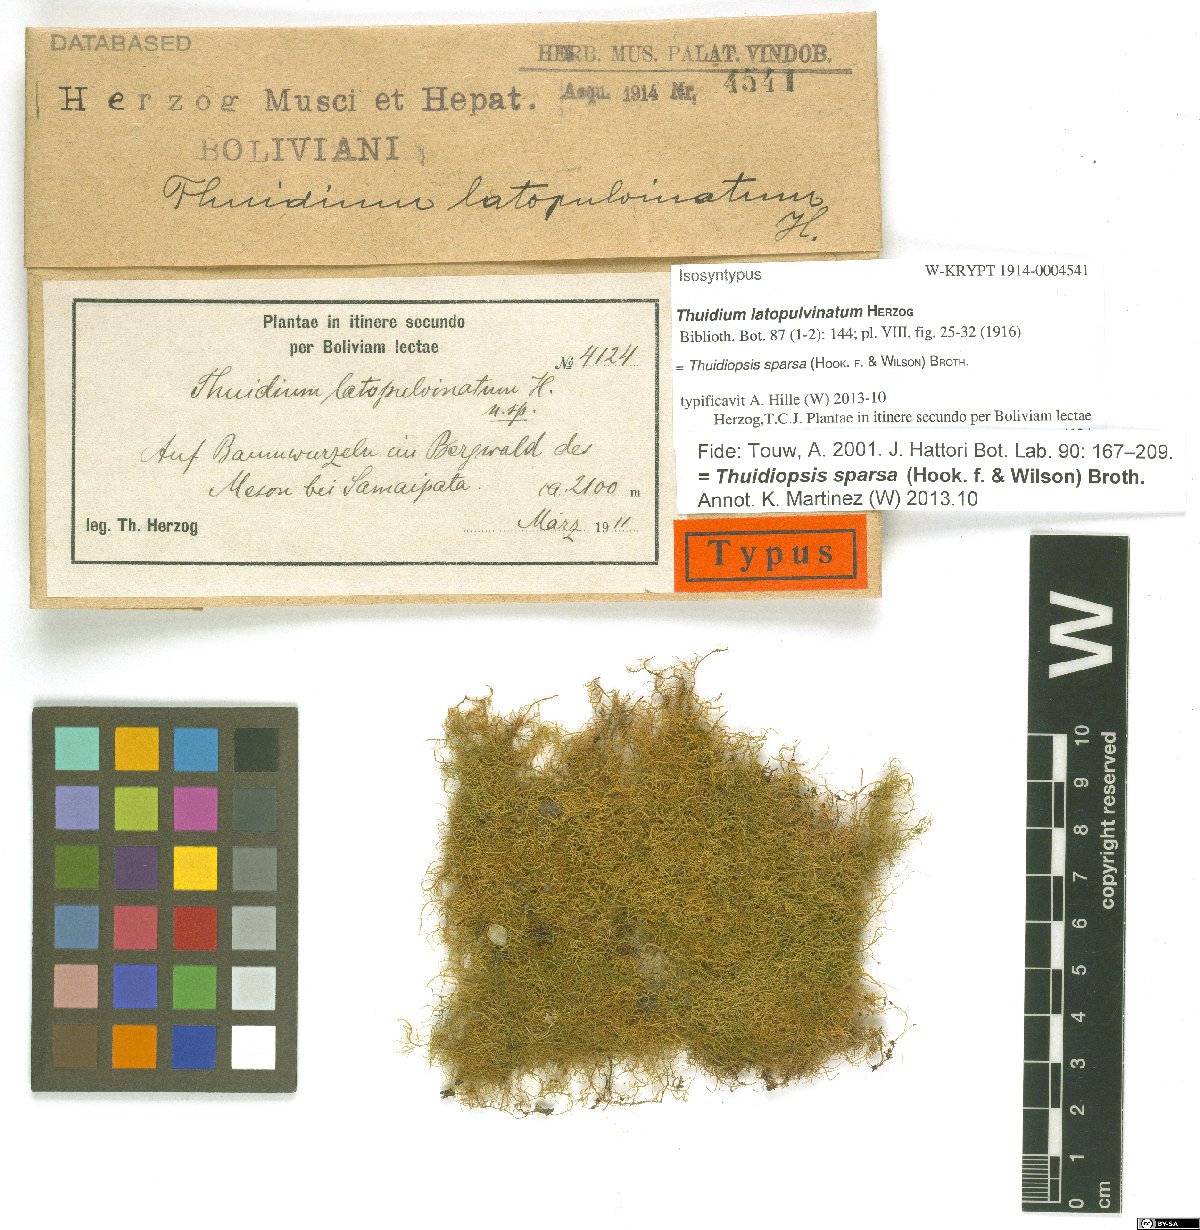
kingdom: Plantae
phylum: Bryophyta
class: Bryopsida
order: Hypnales
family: Thuidiaceae
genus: Thuidiopsis
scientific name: Thuidiopsis sparsa
